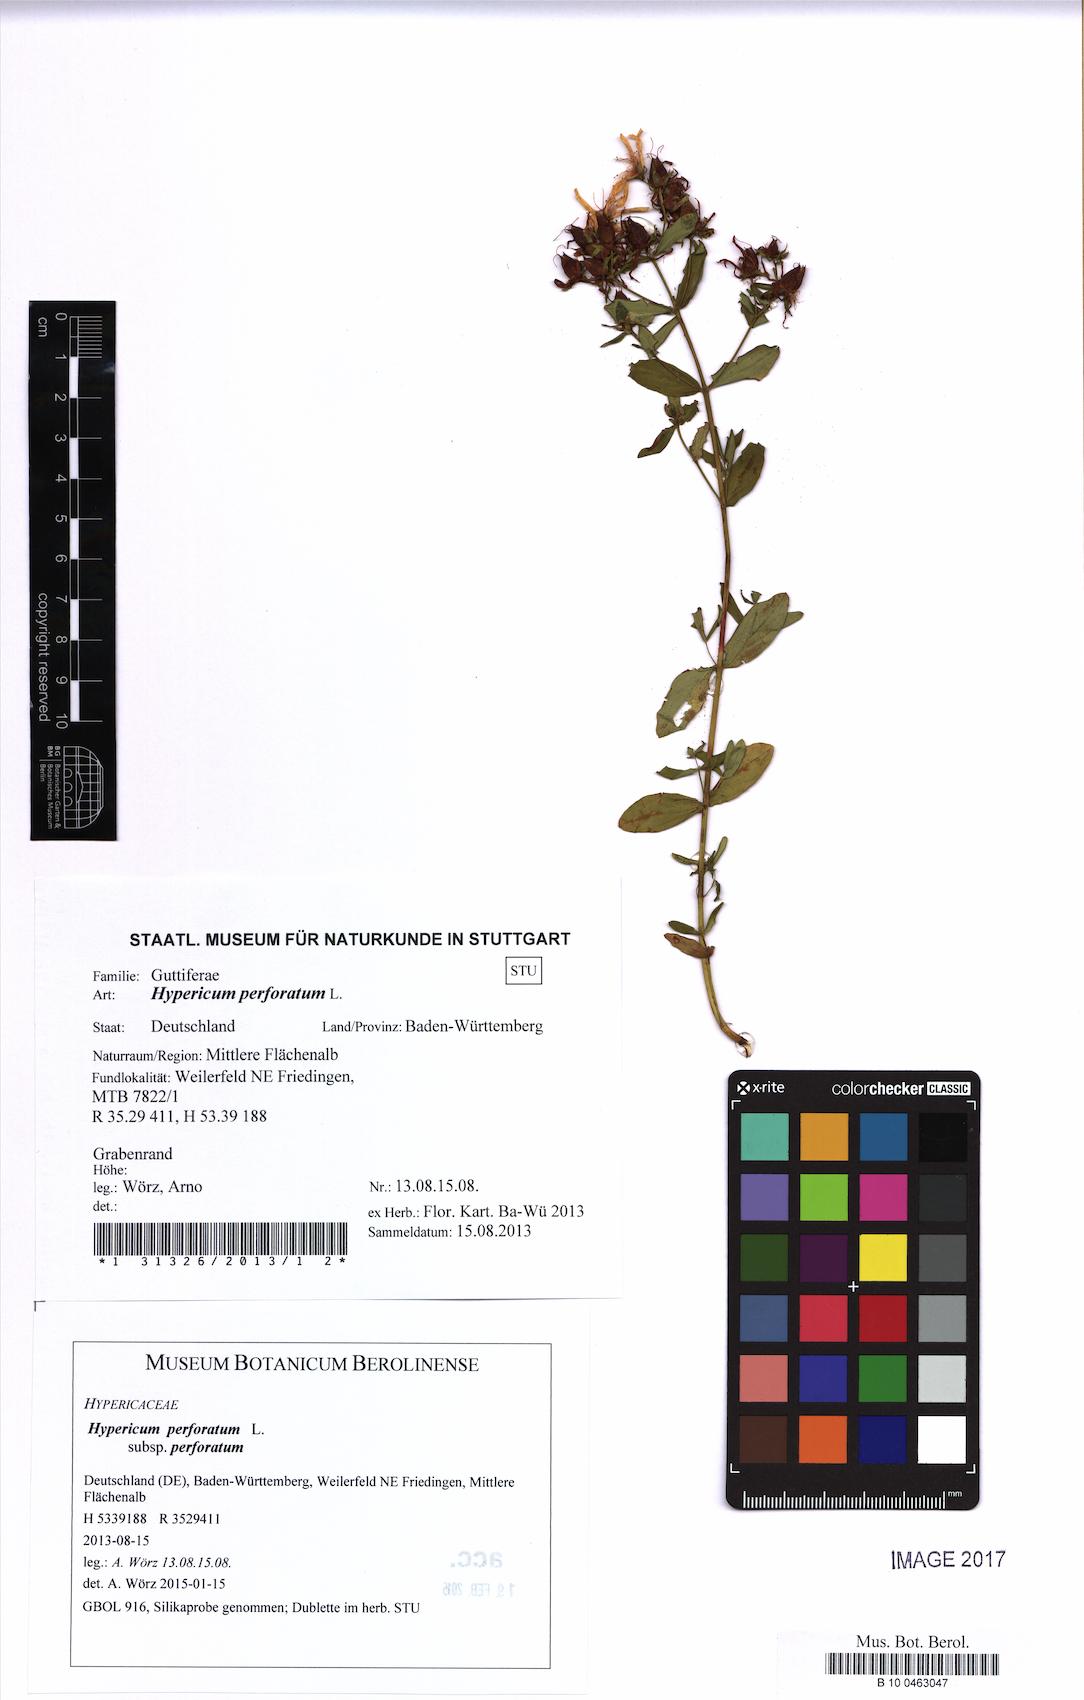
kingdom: Plantae
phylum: Tracheophyta
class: Magnoliopsida
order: Malpighiales
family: Hypericaceae
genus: Hypericum
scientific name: Hypericum perforatum
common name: Common st. johnswort
